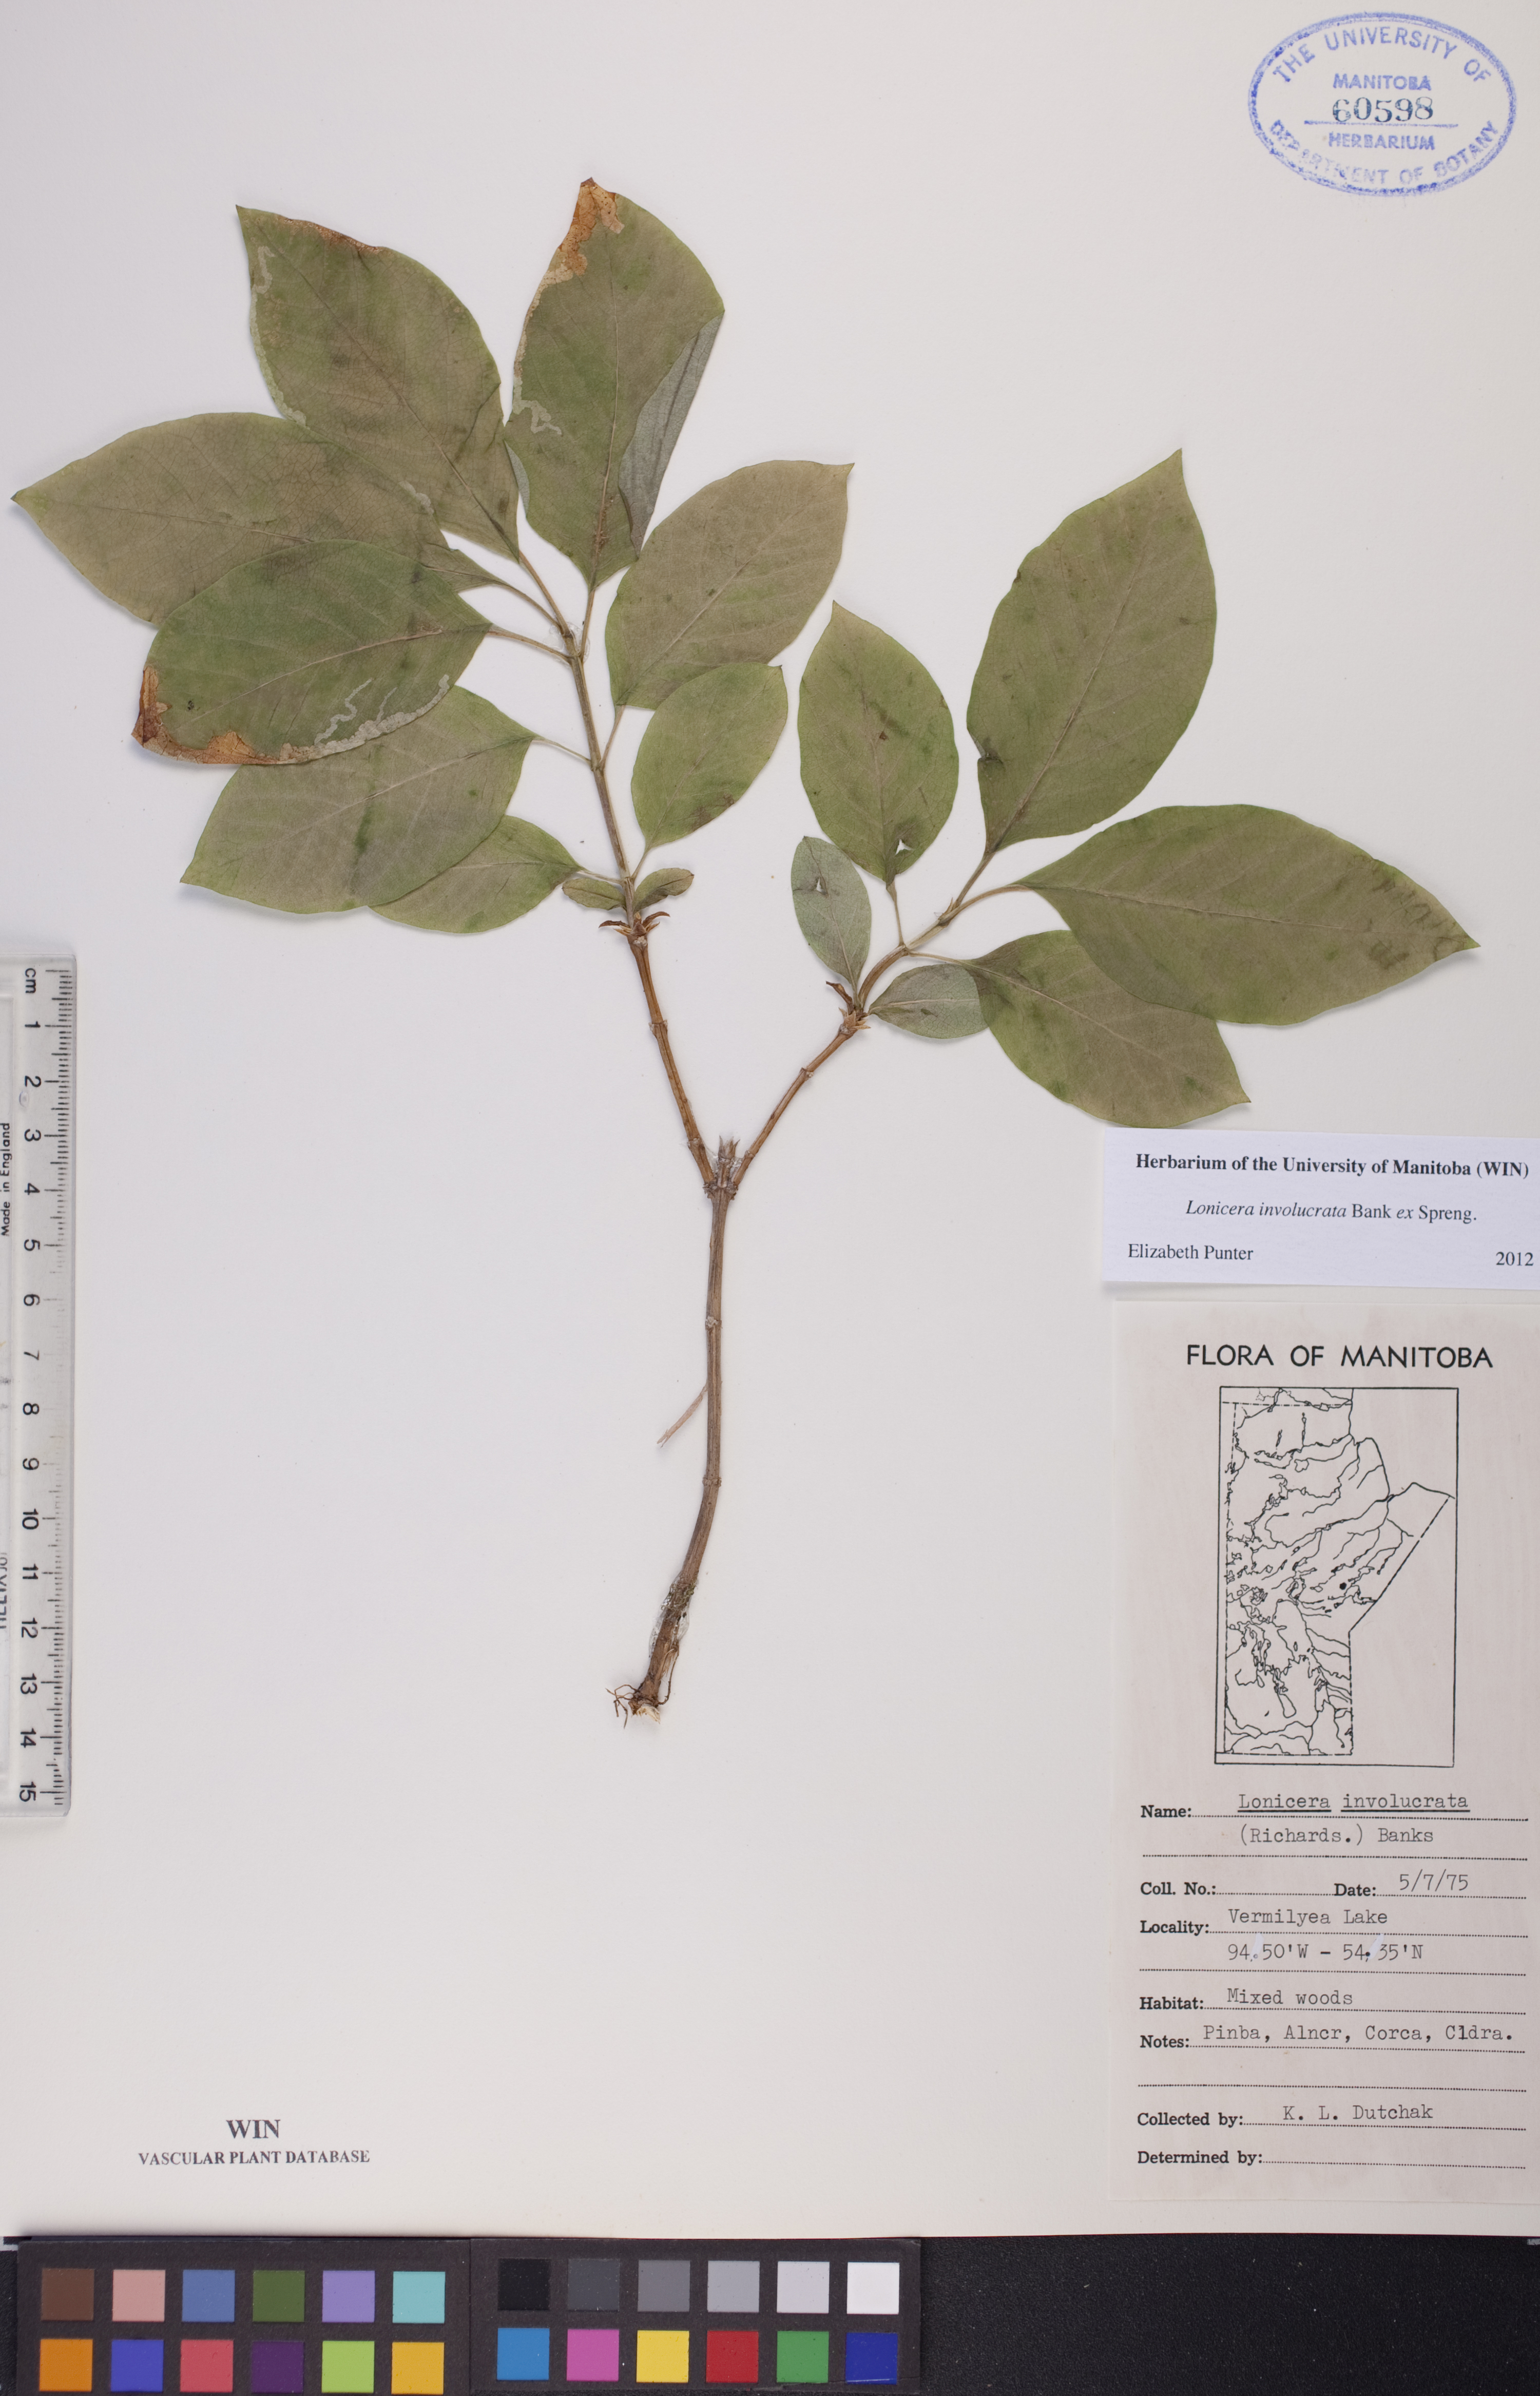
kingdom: Plantae
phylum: Tracheophyta
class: Magnoliopsida
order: Dipsacales
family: Caprifoliaceae
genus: Lonicera
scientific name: Lonicera involucrata
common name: Californian honeysuckle
